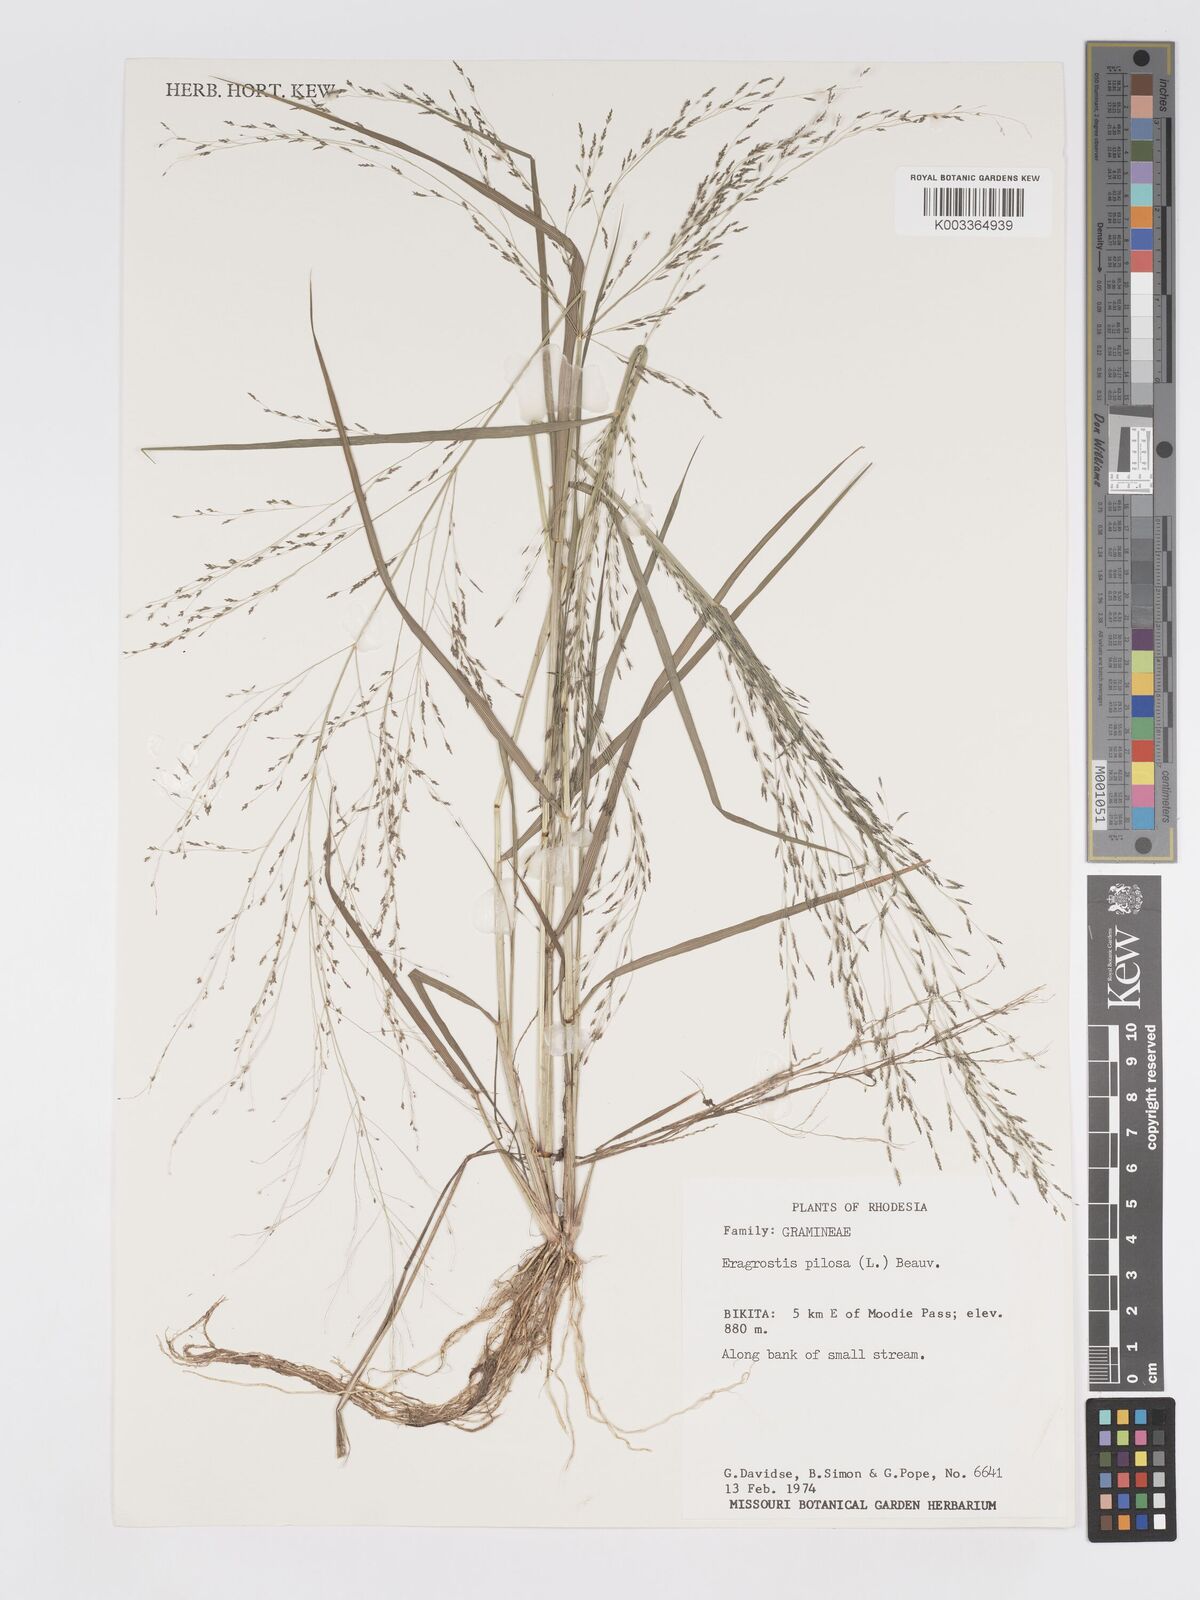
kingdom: Plantae
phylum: Tracheophyta
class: Liliopsida
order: Poales
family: Poaceae
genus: Eragrostis
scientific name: Eragrostis pilosa
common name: Indian lovegrass
